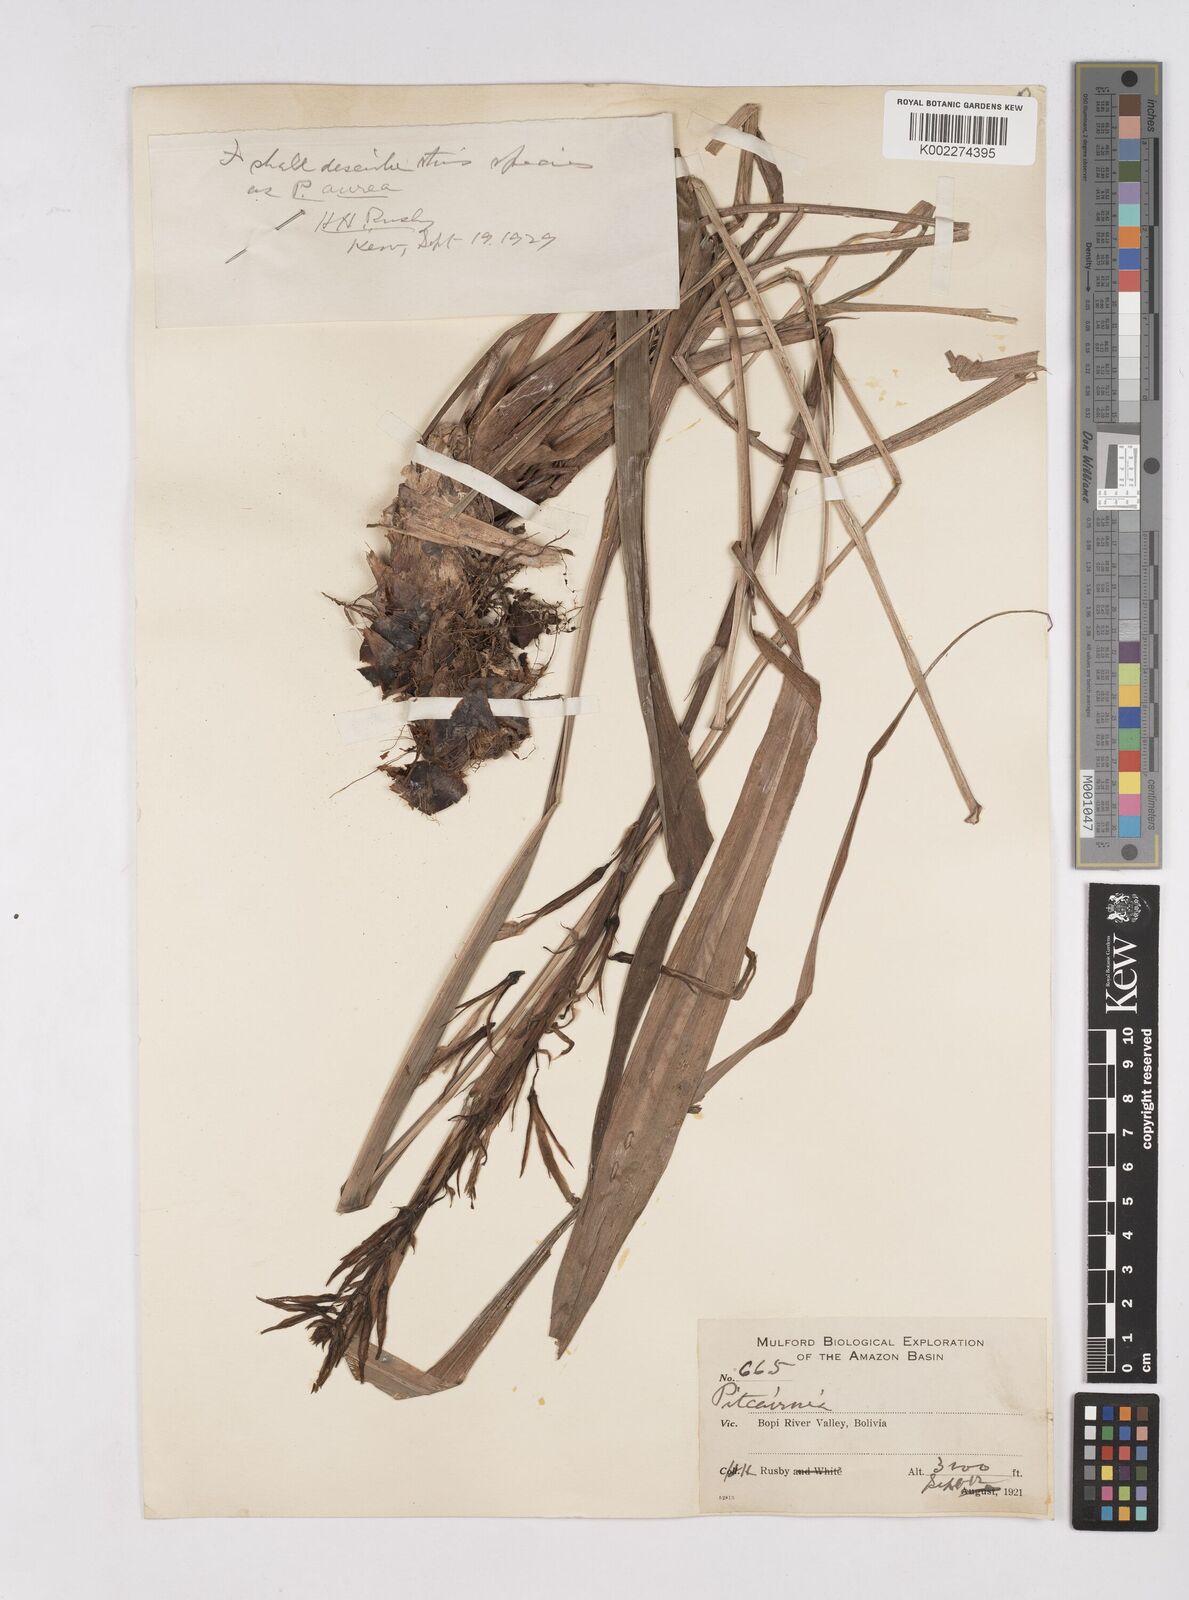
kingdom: Plantae
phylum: Tracheophyta
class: Liliopsida
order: Poales
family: Bromeliaceae
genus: Pitcairnia
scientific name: Pitcairnia aurea
